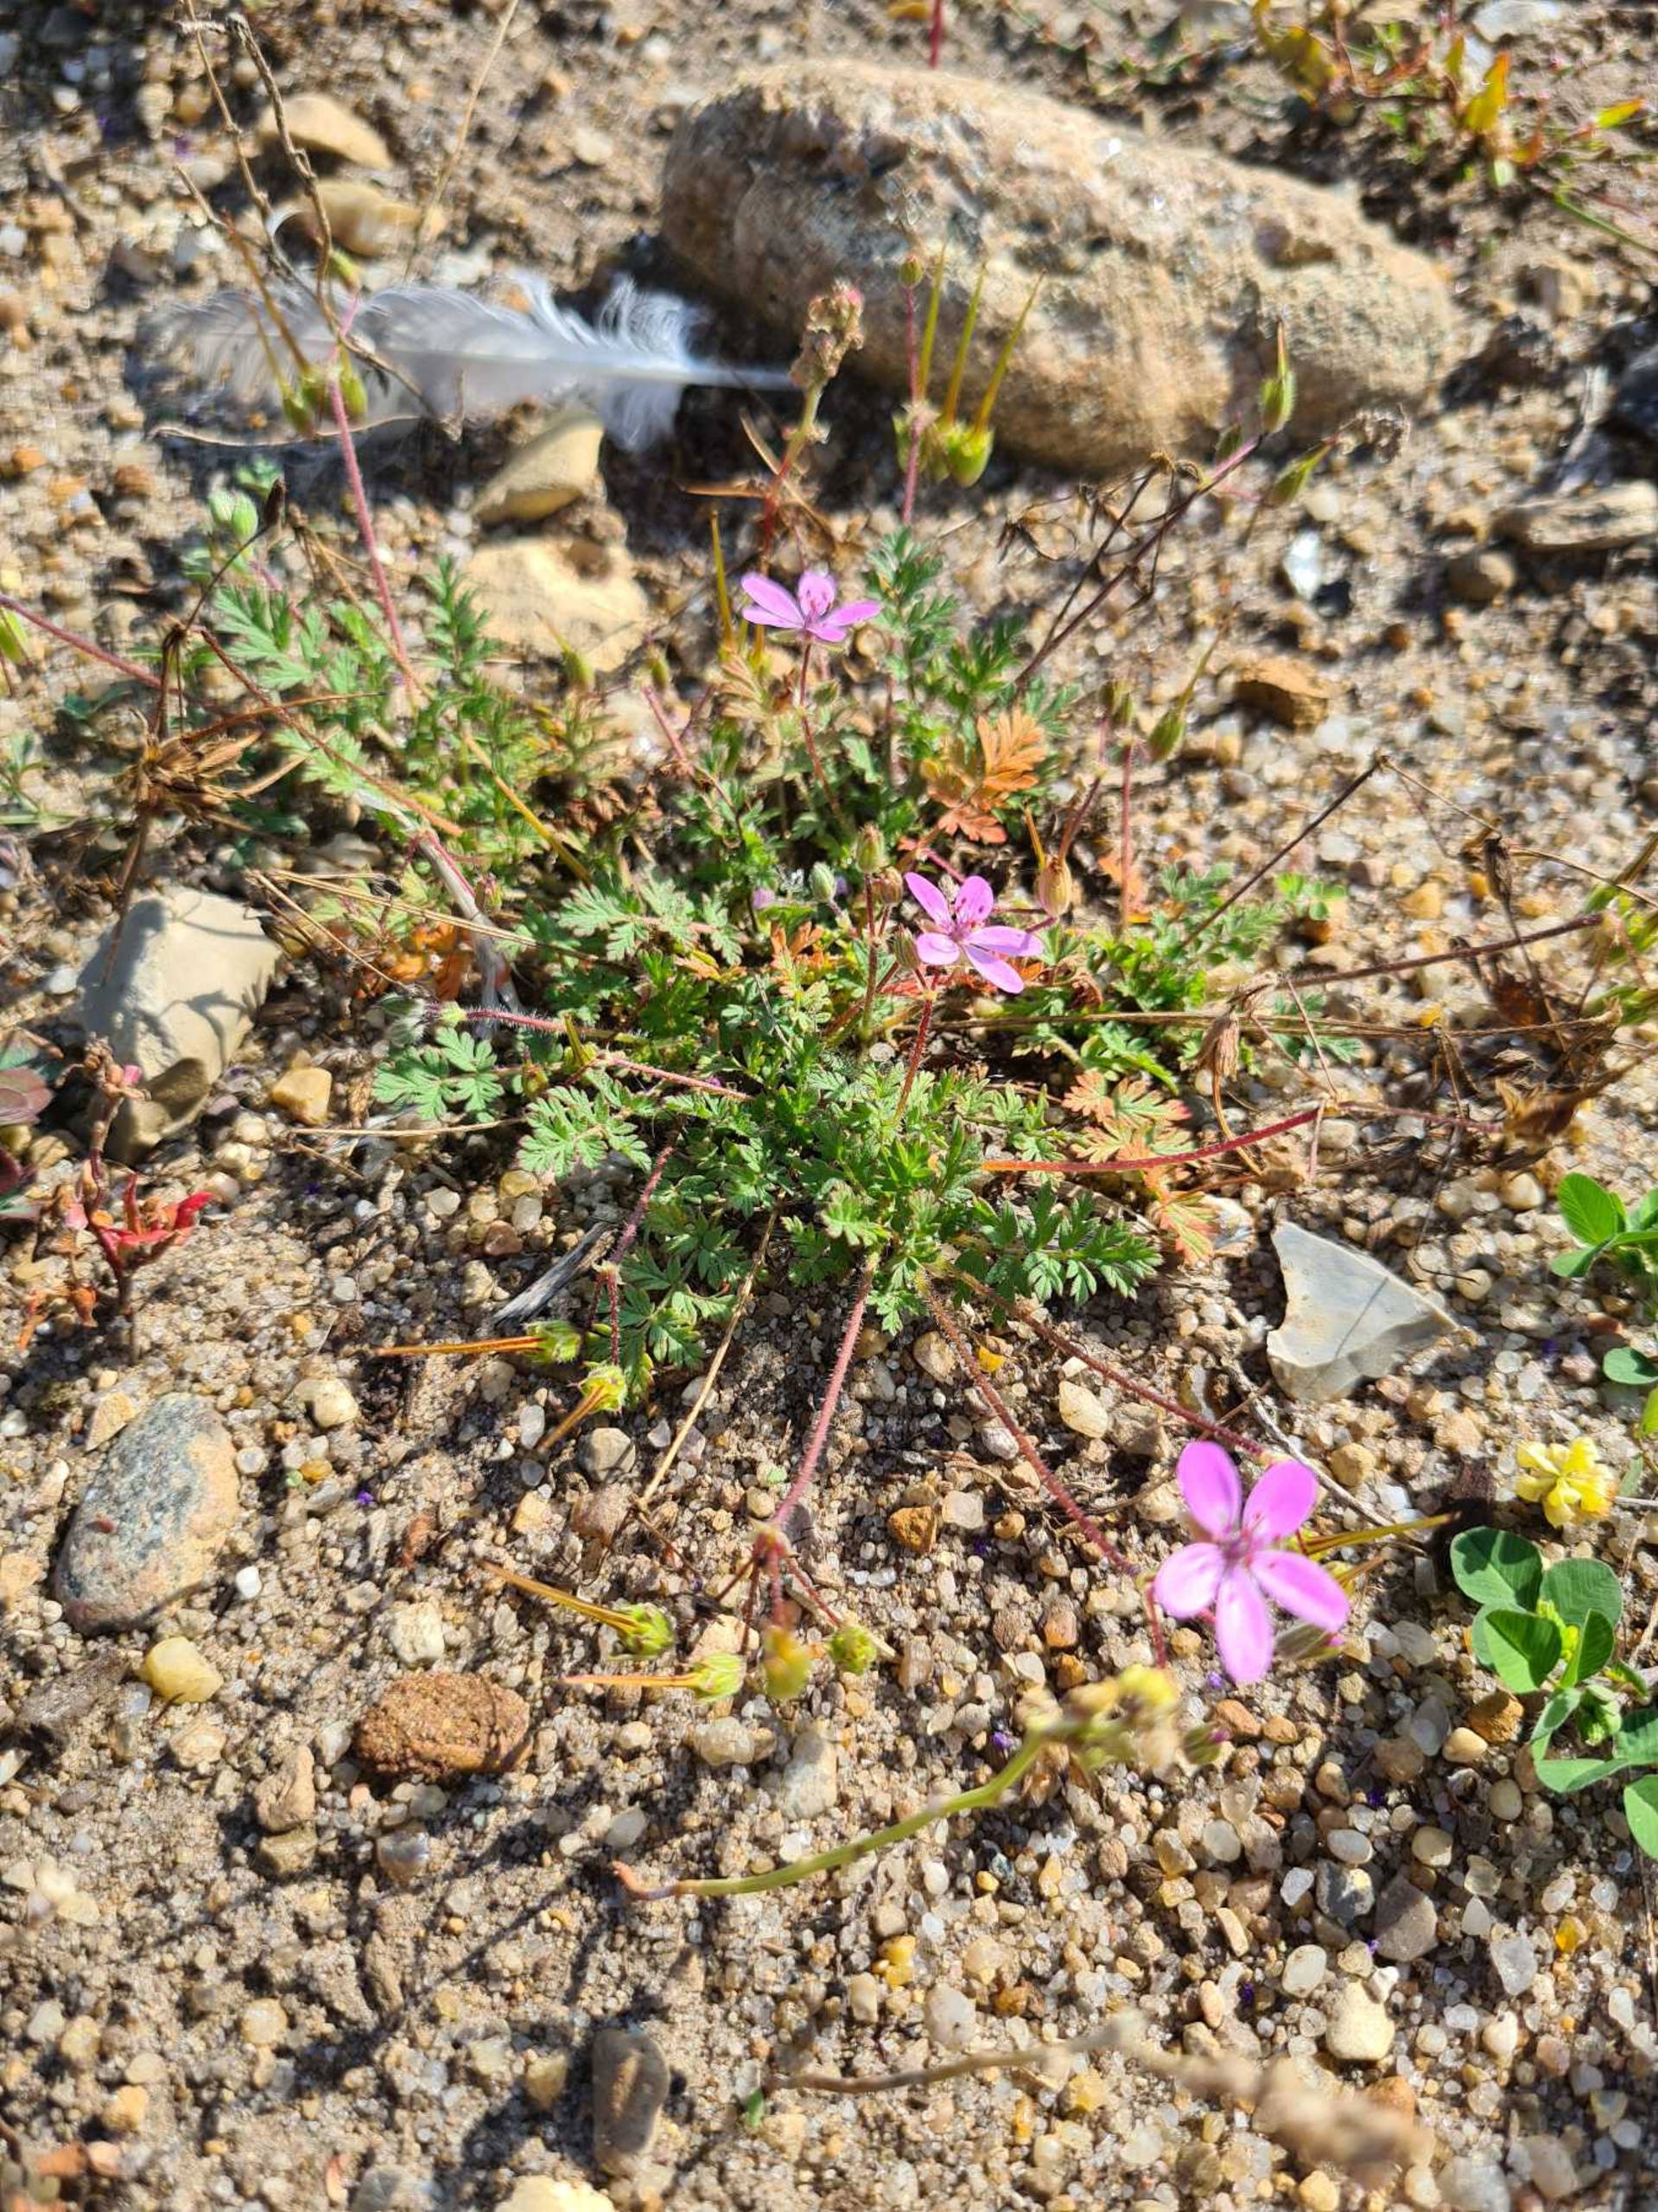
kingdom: Plantae
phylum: Tracheophyta
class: Magnoliopsida
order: Geraniales
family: Geraniaceae
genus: Erodium
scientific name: Erodium cicutarium
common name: Hejrenæb
